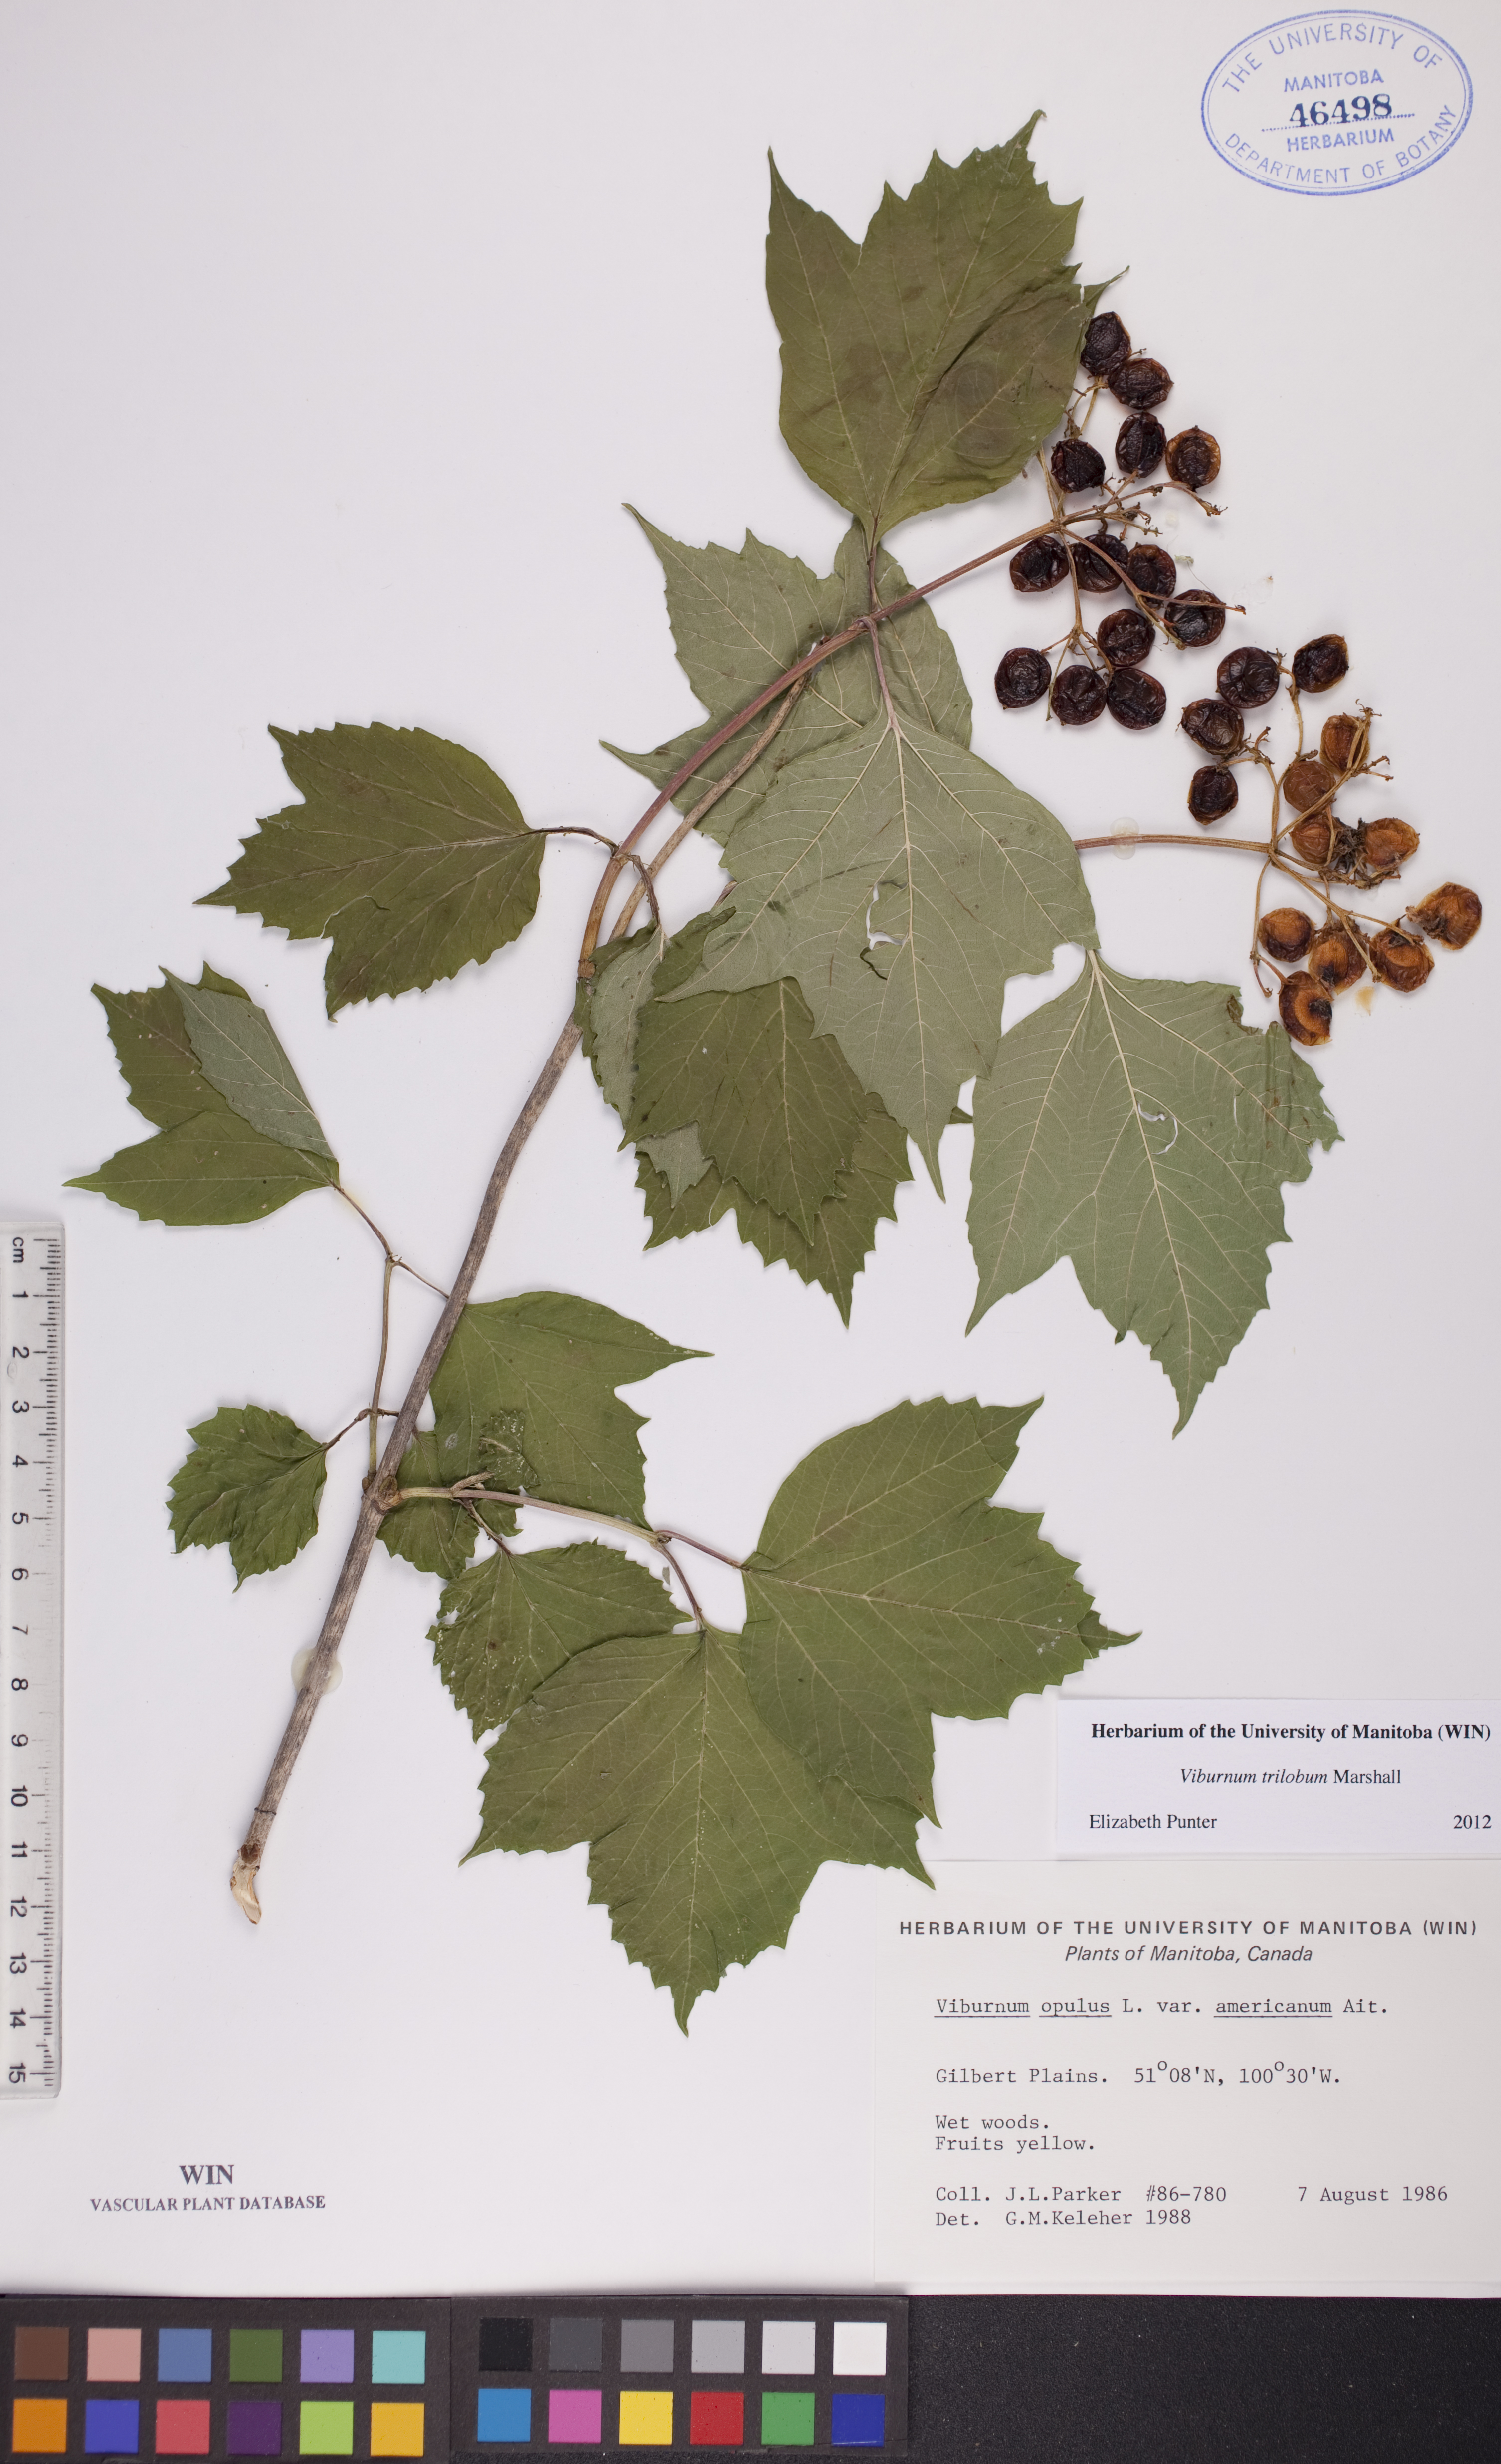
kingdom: Plantae
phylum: Tracheophyta
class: Magnoliopsida
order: Dipsacales
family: Viburnaceae
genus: Viburnum
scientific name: Viburnum trilobum
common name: American cranberrybush
